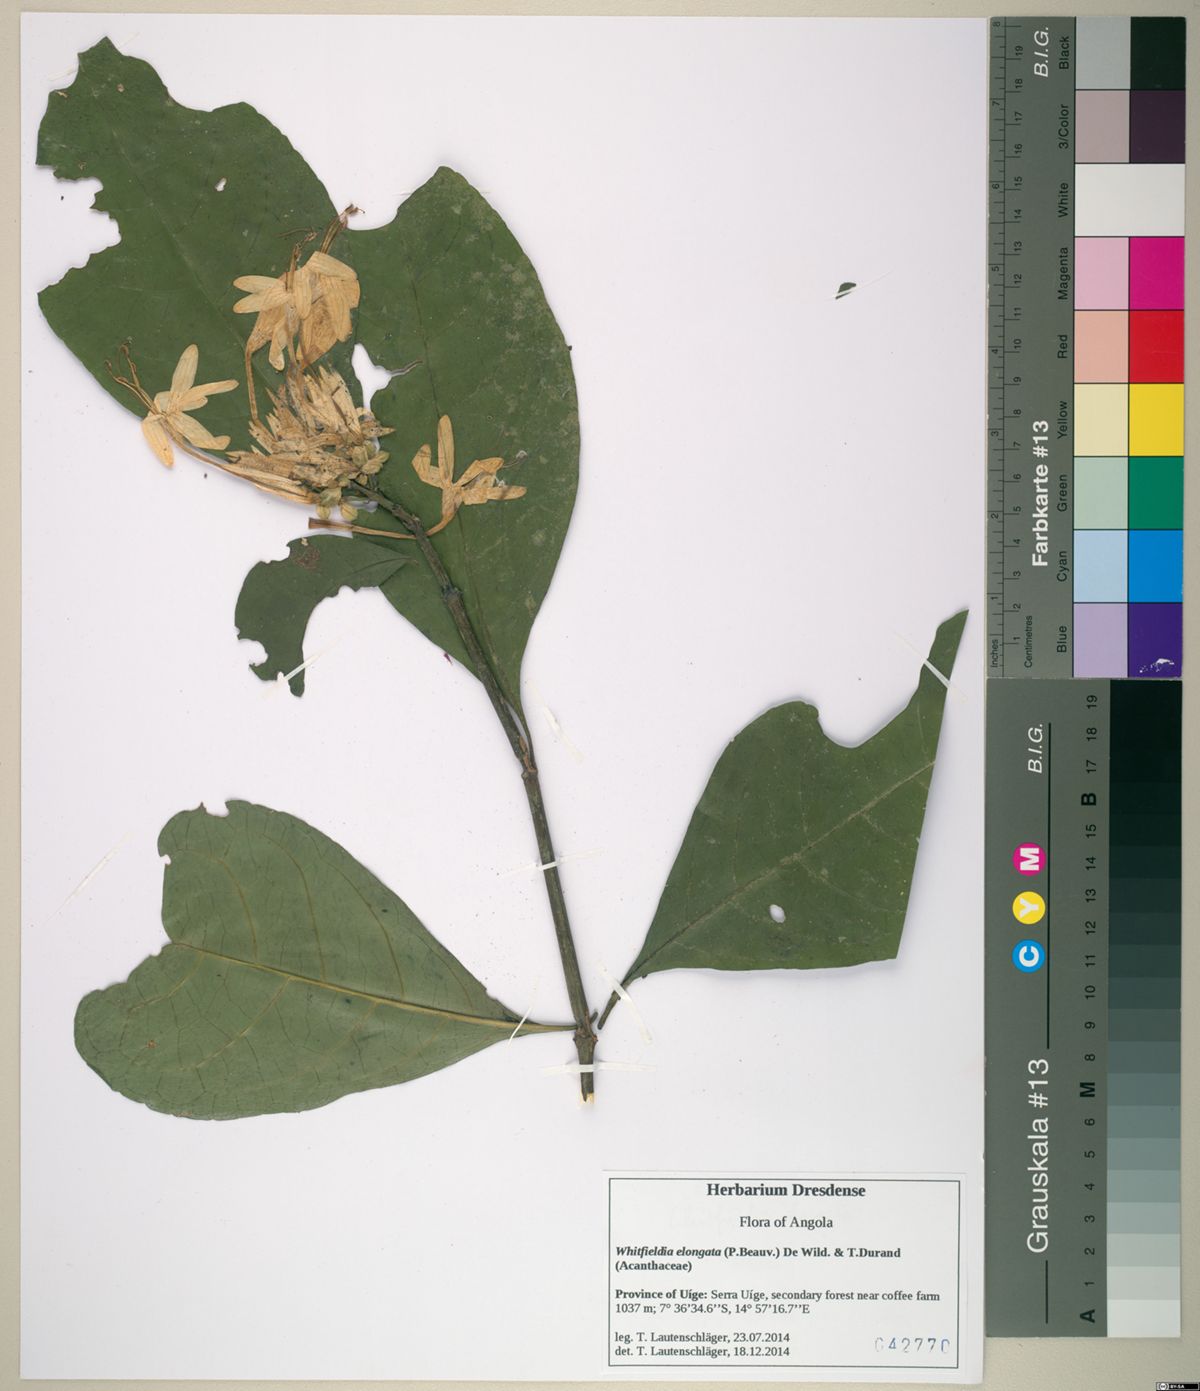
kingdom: Plantae
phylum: Tracheophyta
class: Magnoliopsida
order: Lamiales
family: Acanthaceae
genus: Whitfieldia
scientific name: Whitfieldia elongata
